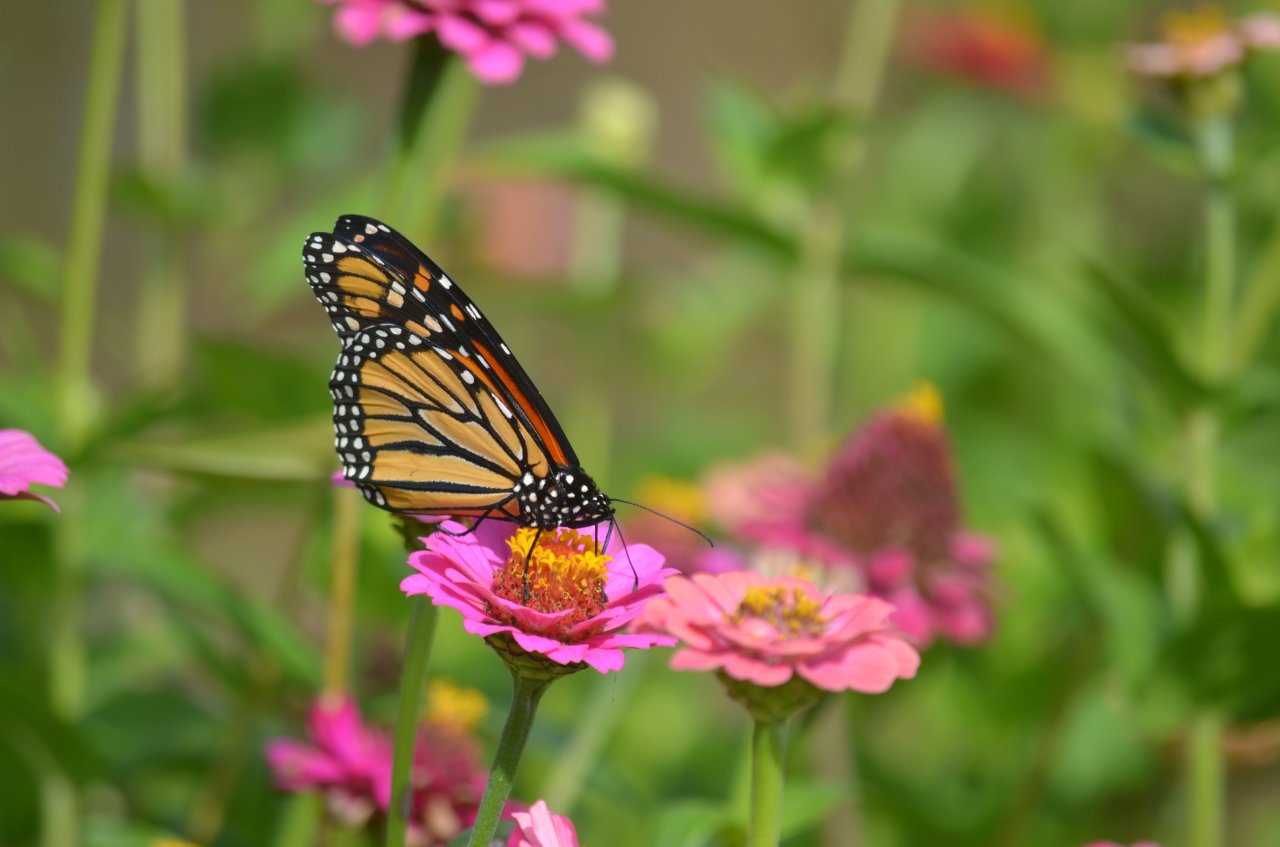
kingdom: Animalia
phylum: Arthropoda
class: Insecta
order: Lepidoptera
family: Nymphalidae
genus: Danaus
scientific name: Danaus plexippus
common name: Monarch
